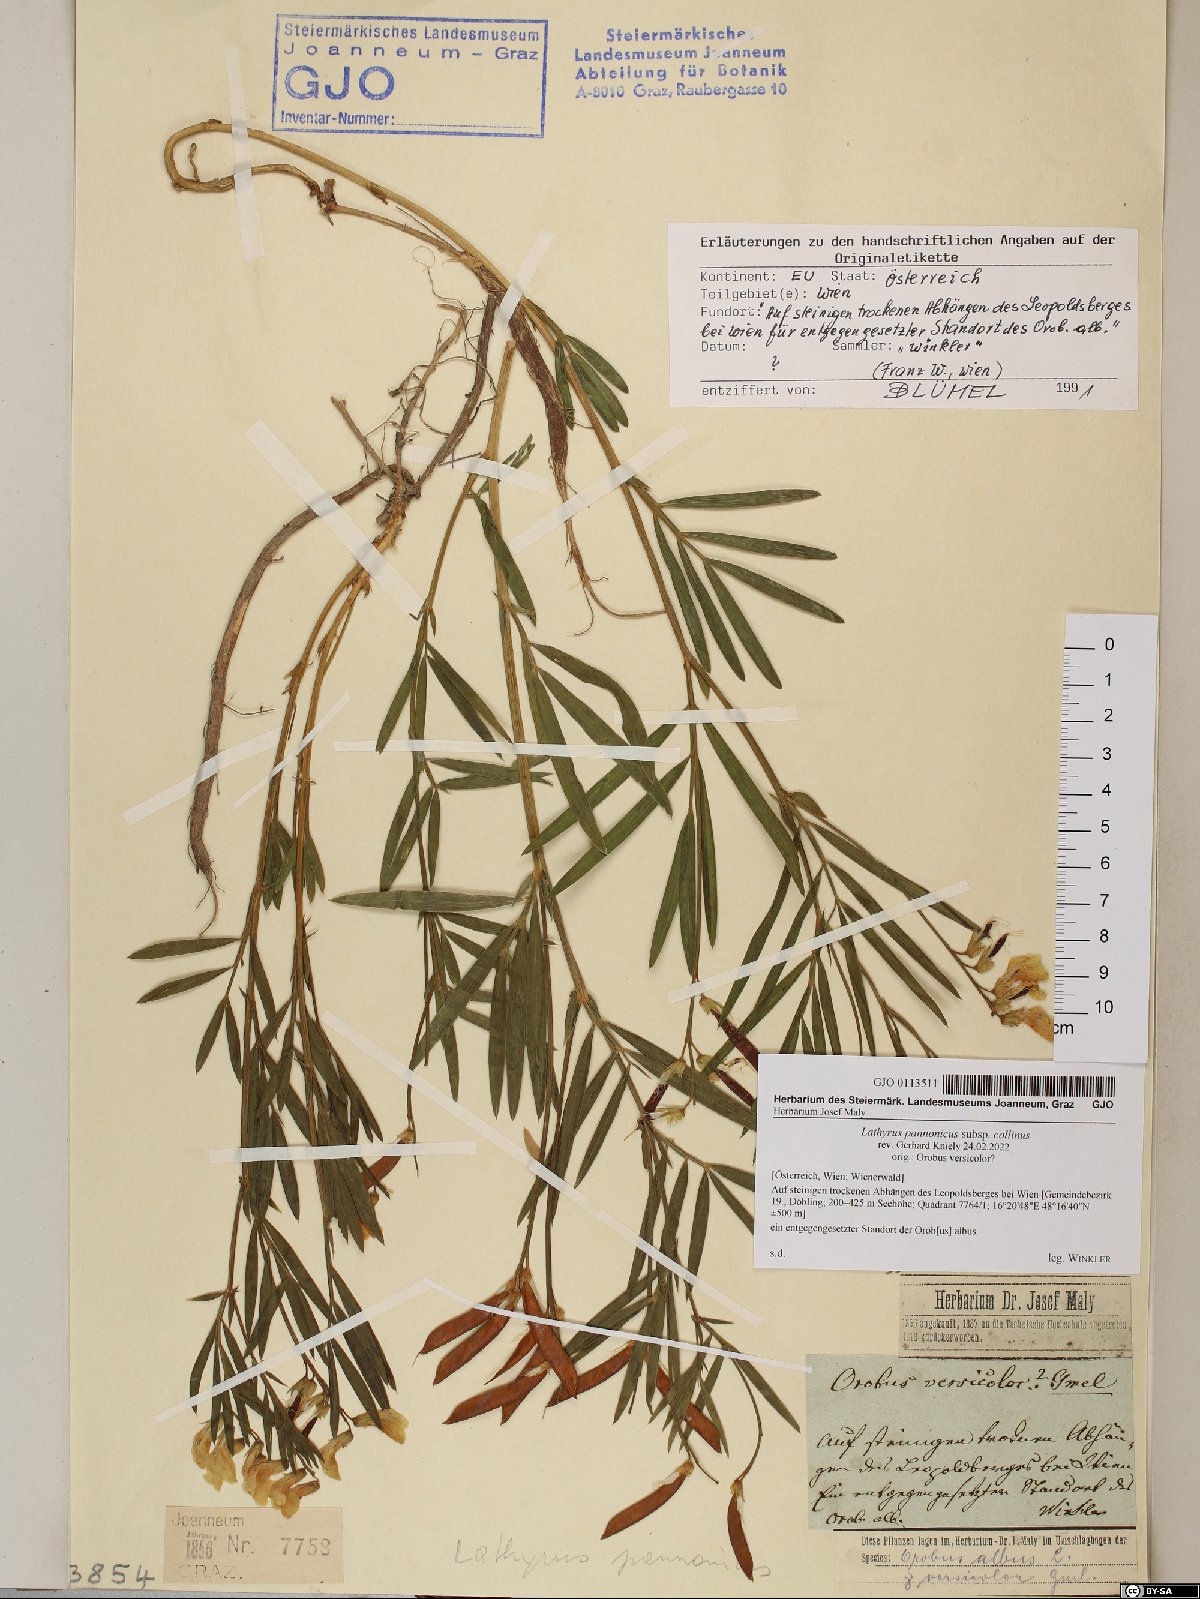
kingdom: Plantae
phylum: Tracheophyta
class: Magnoliopsida
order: Fabales
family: Fabaceae
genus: Lathyrus
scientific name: Lathyrus pannonicus
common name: Pea
